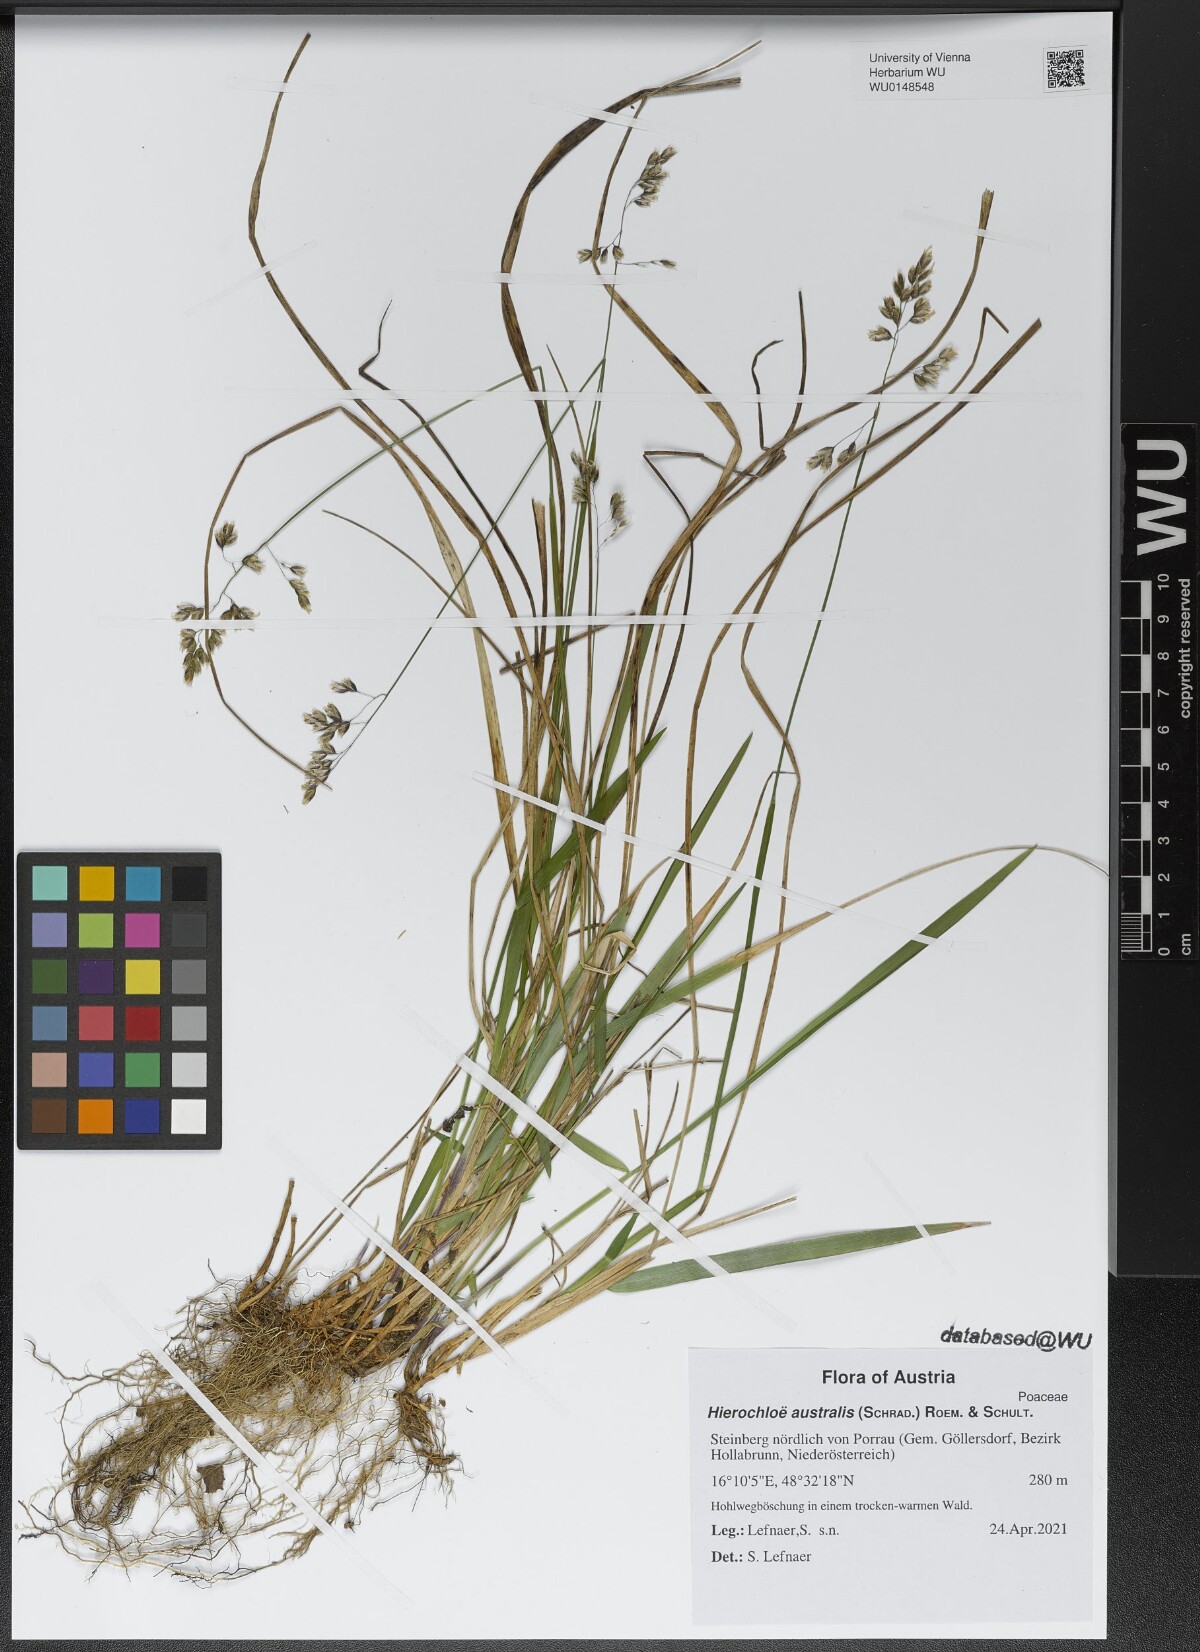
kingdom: Plantae
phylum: Tracheophyta
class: Liliopsida
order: Poales
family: Poaceae
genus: Anthoxanthum
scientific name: Anthoxanthum australe
